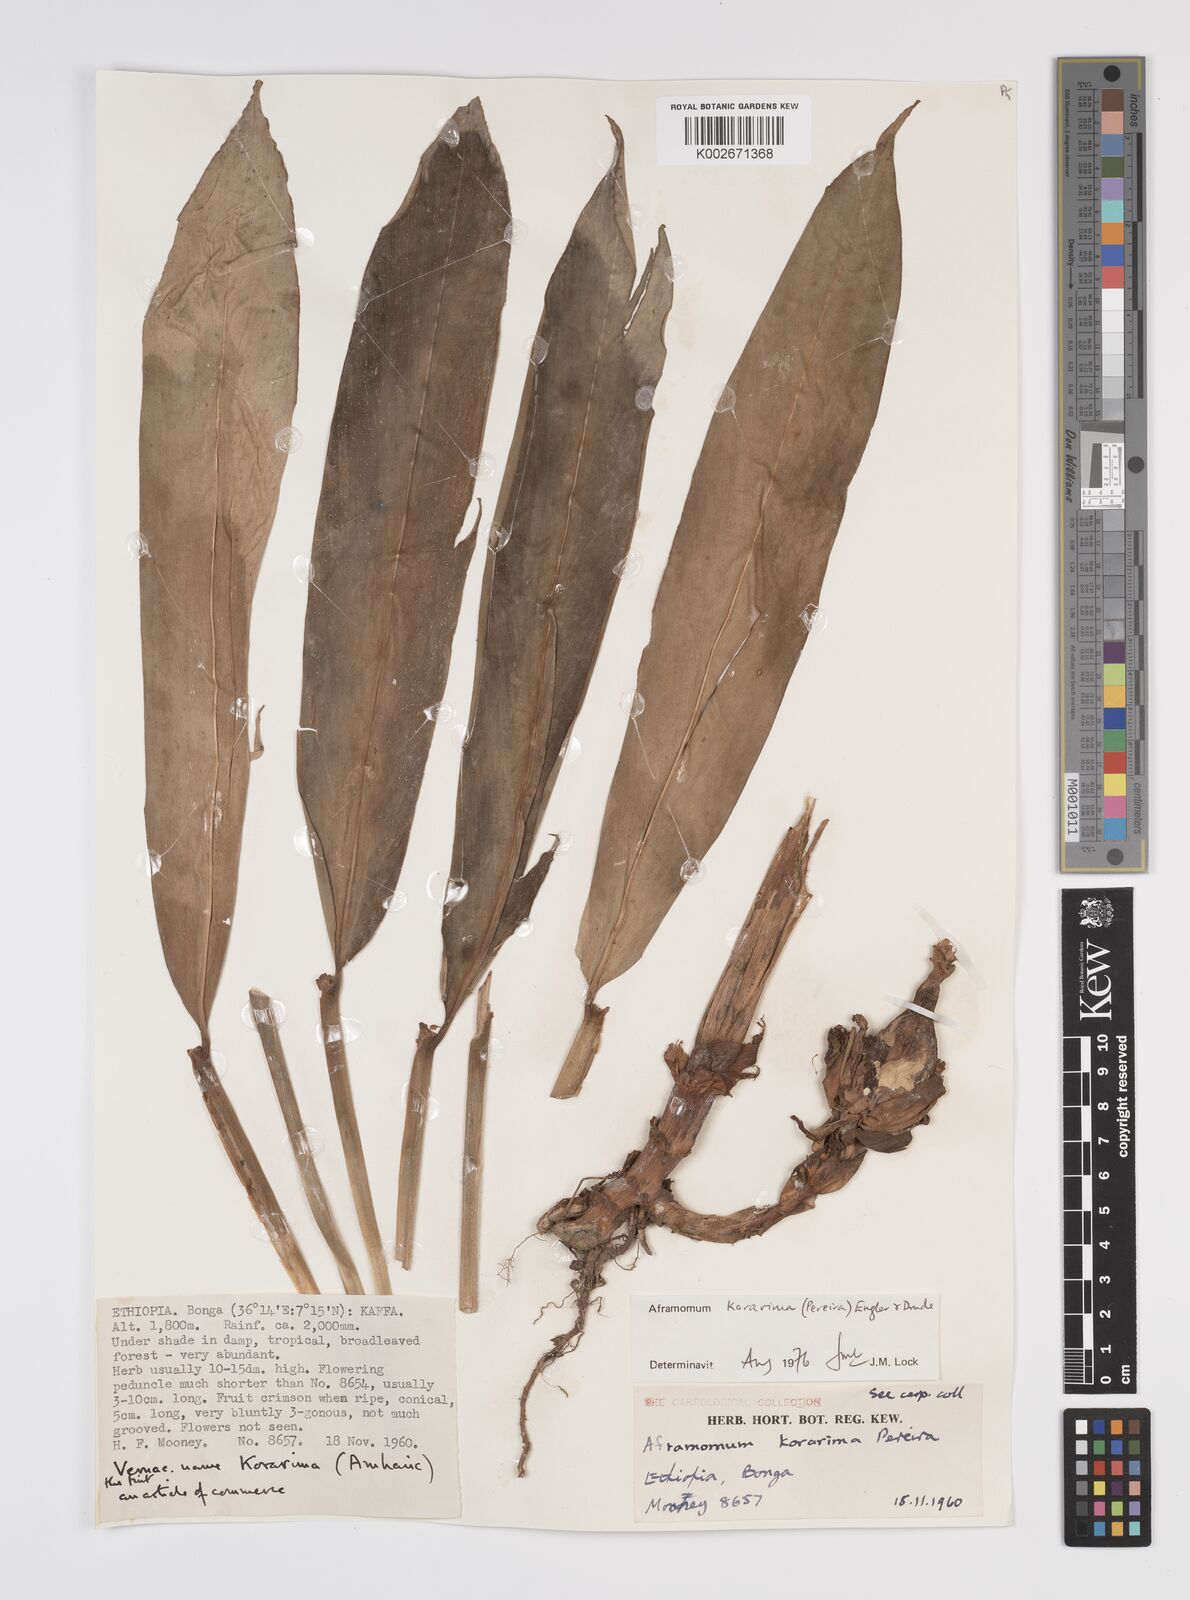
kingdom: Plantae
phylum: Tracheophyta
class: Liliopsida
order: Zingiberales
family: Zingiberaceae
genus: Aframomum
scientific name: Aframomum corrorima
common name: Ethiopian cardamom
